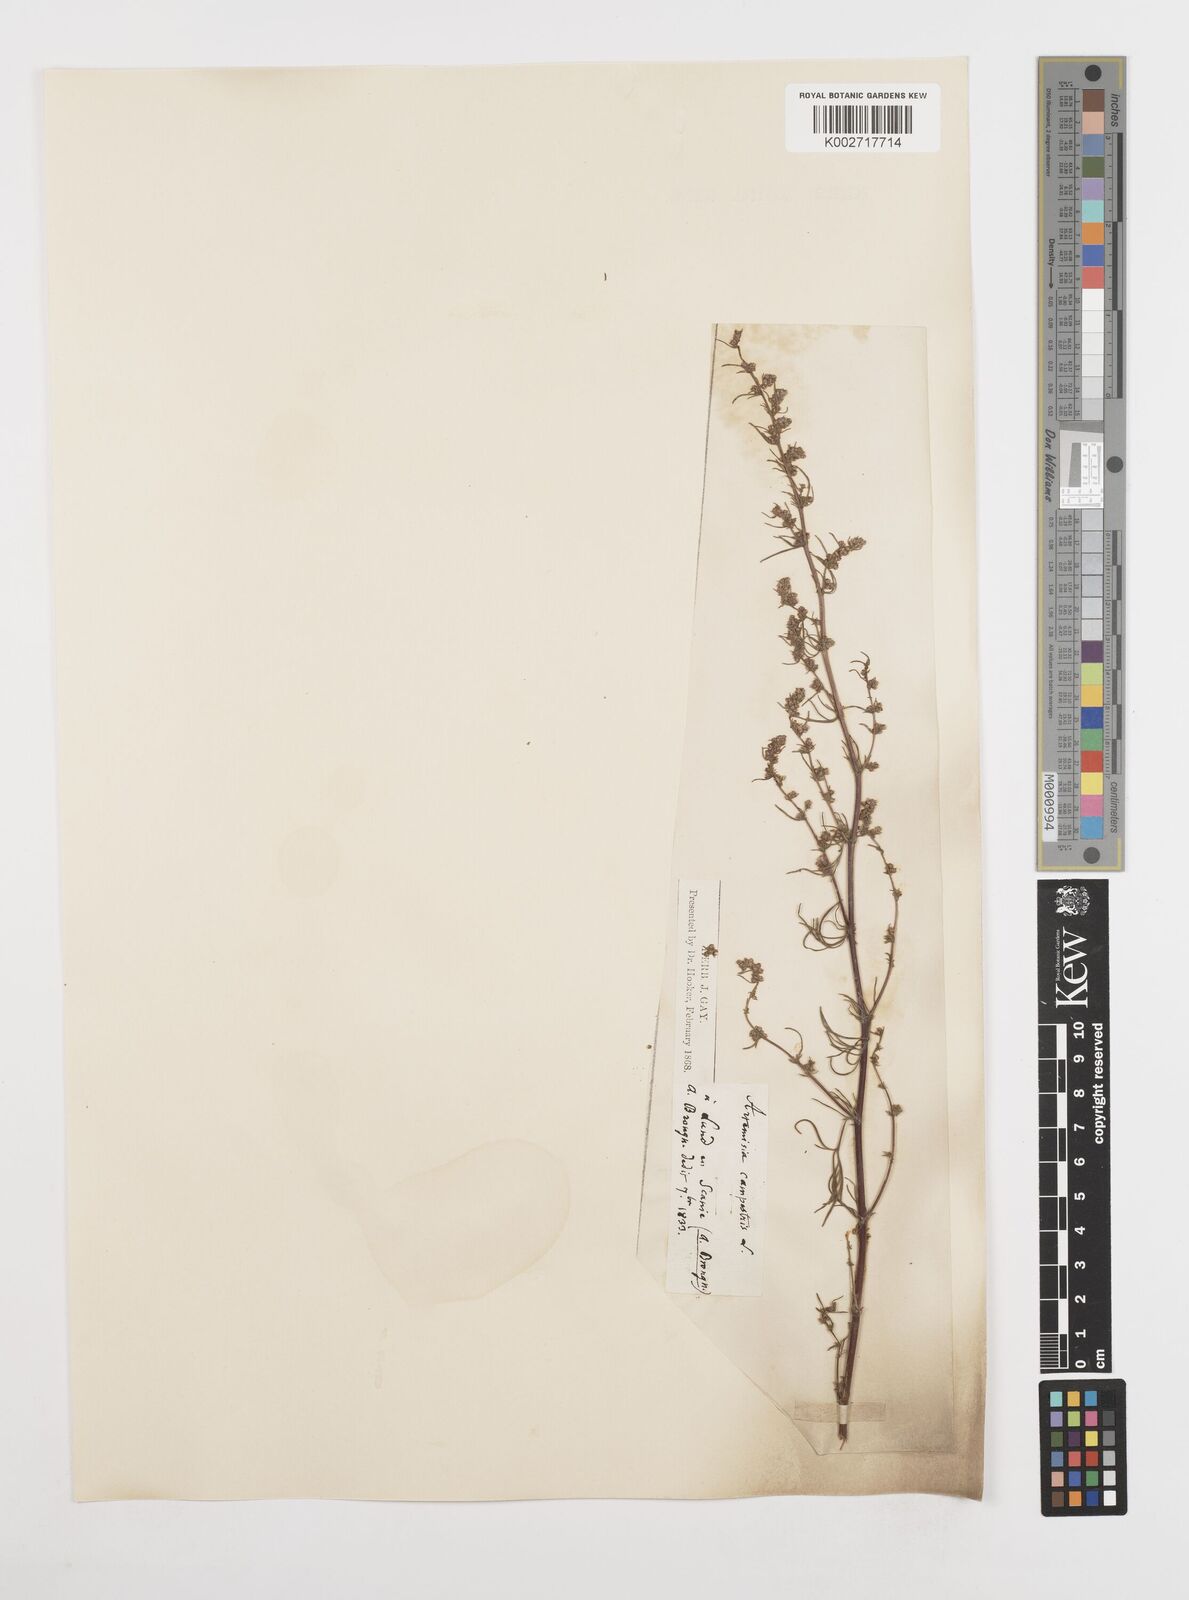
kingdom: Plantae
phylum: Tracheophyta
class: Magnoliopsida
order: Asterales
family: Asteraceae
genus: Artemisia
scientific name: Artemisia campestris
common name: Field wormwood
